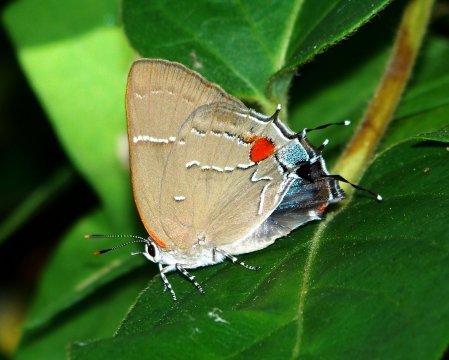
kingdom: Animalia
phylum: Arthropoda
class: Insecta
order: Lepidoptera
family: Lycaenidae
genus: Parrhasius
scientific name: Parrhasius m-album
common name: White-m Hairstreak
